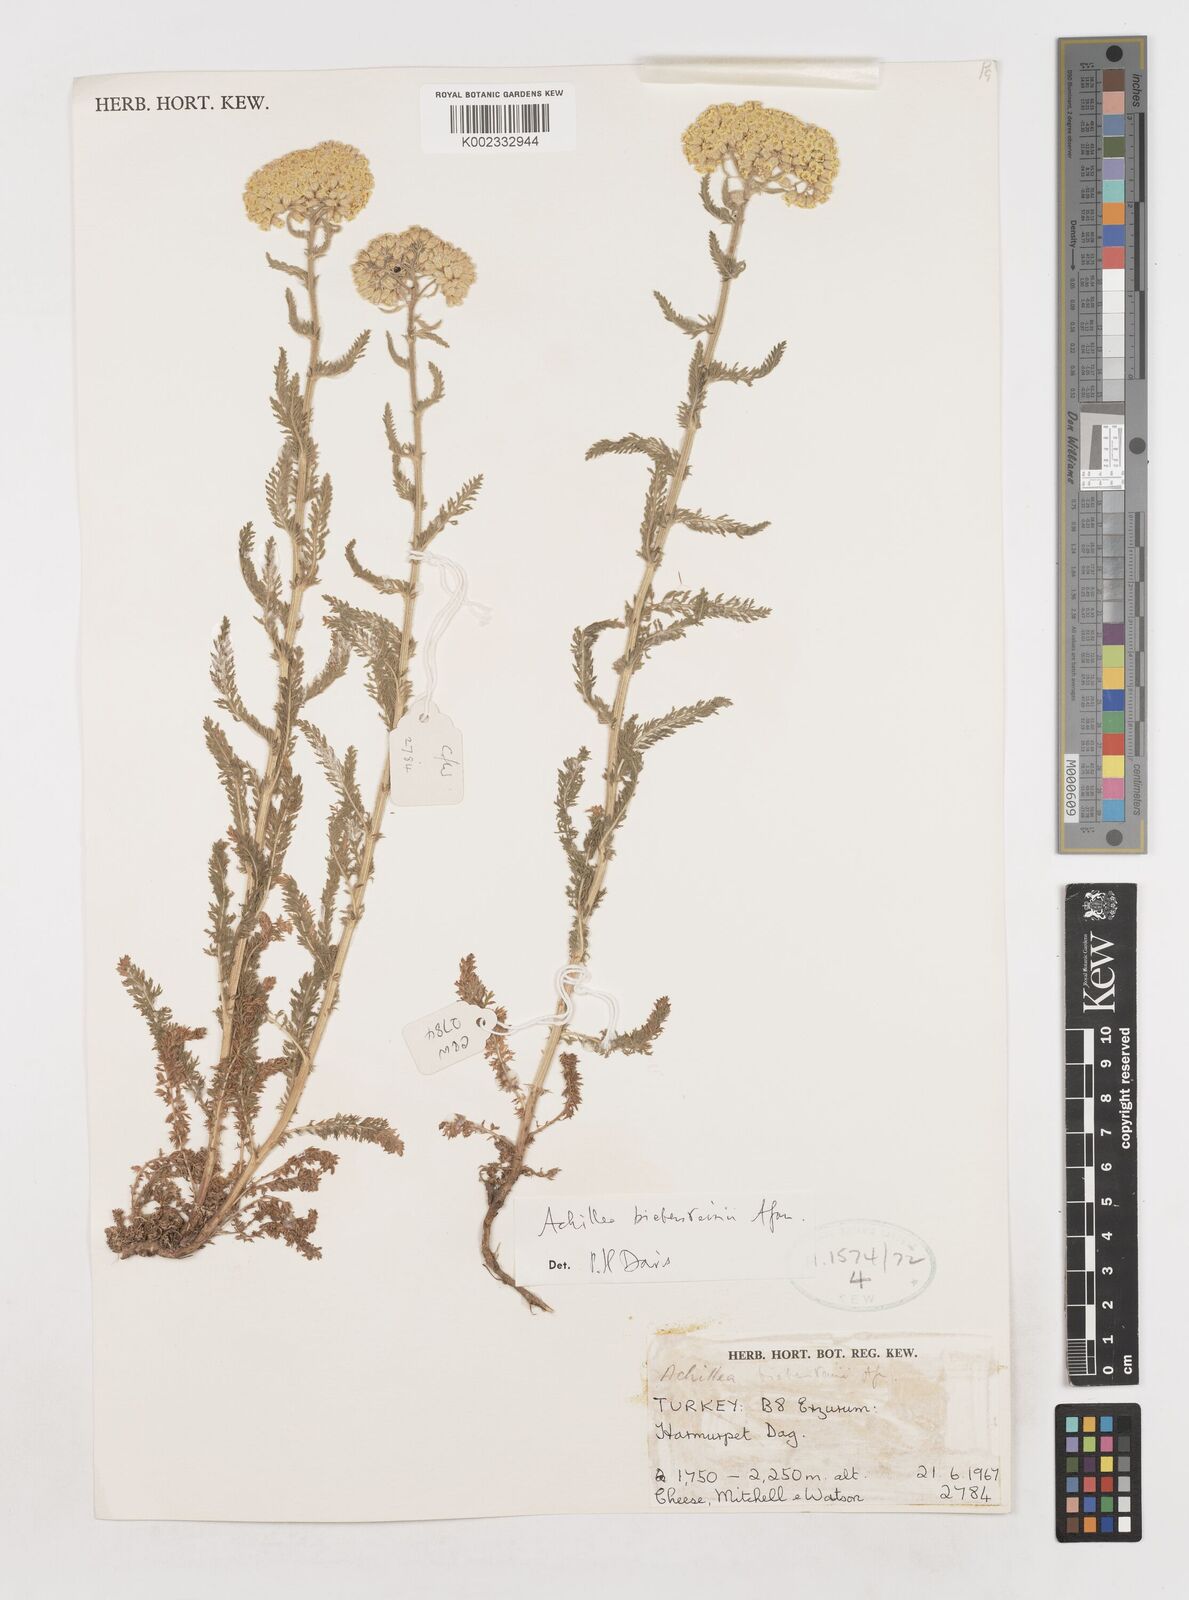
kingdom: Plantae
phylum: Tracheophyta
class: Magnoliopsida
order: Asterales
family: Asteraceae
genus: Achillea
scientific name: Achillea arabica
